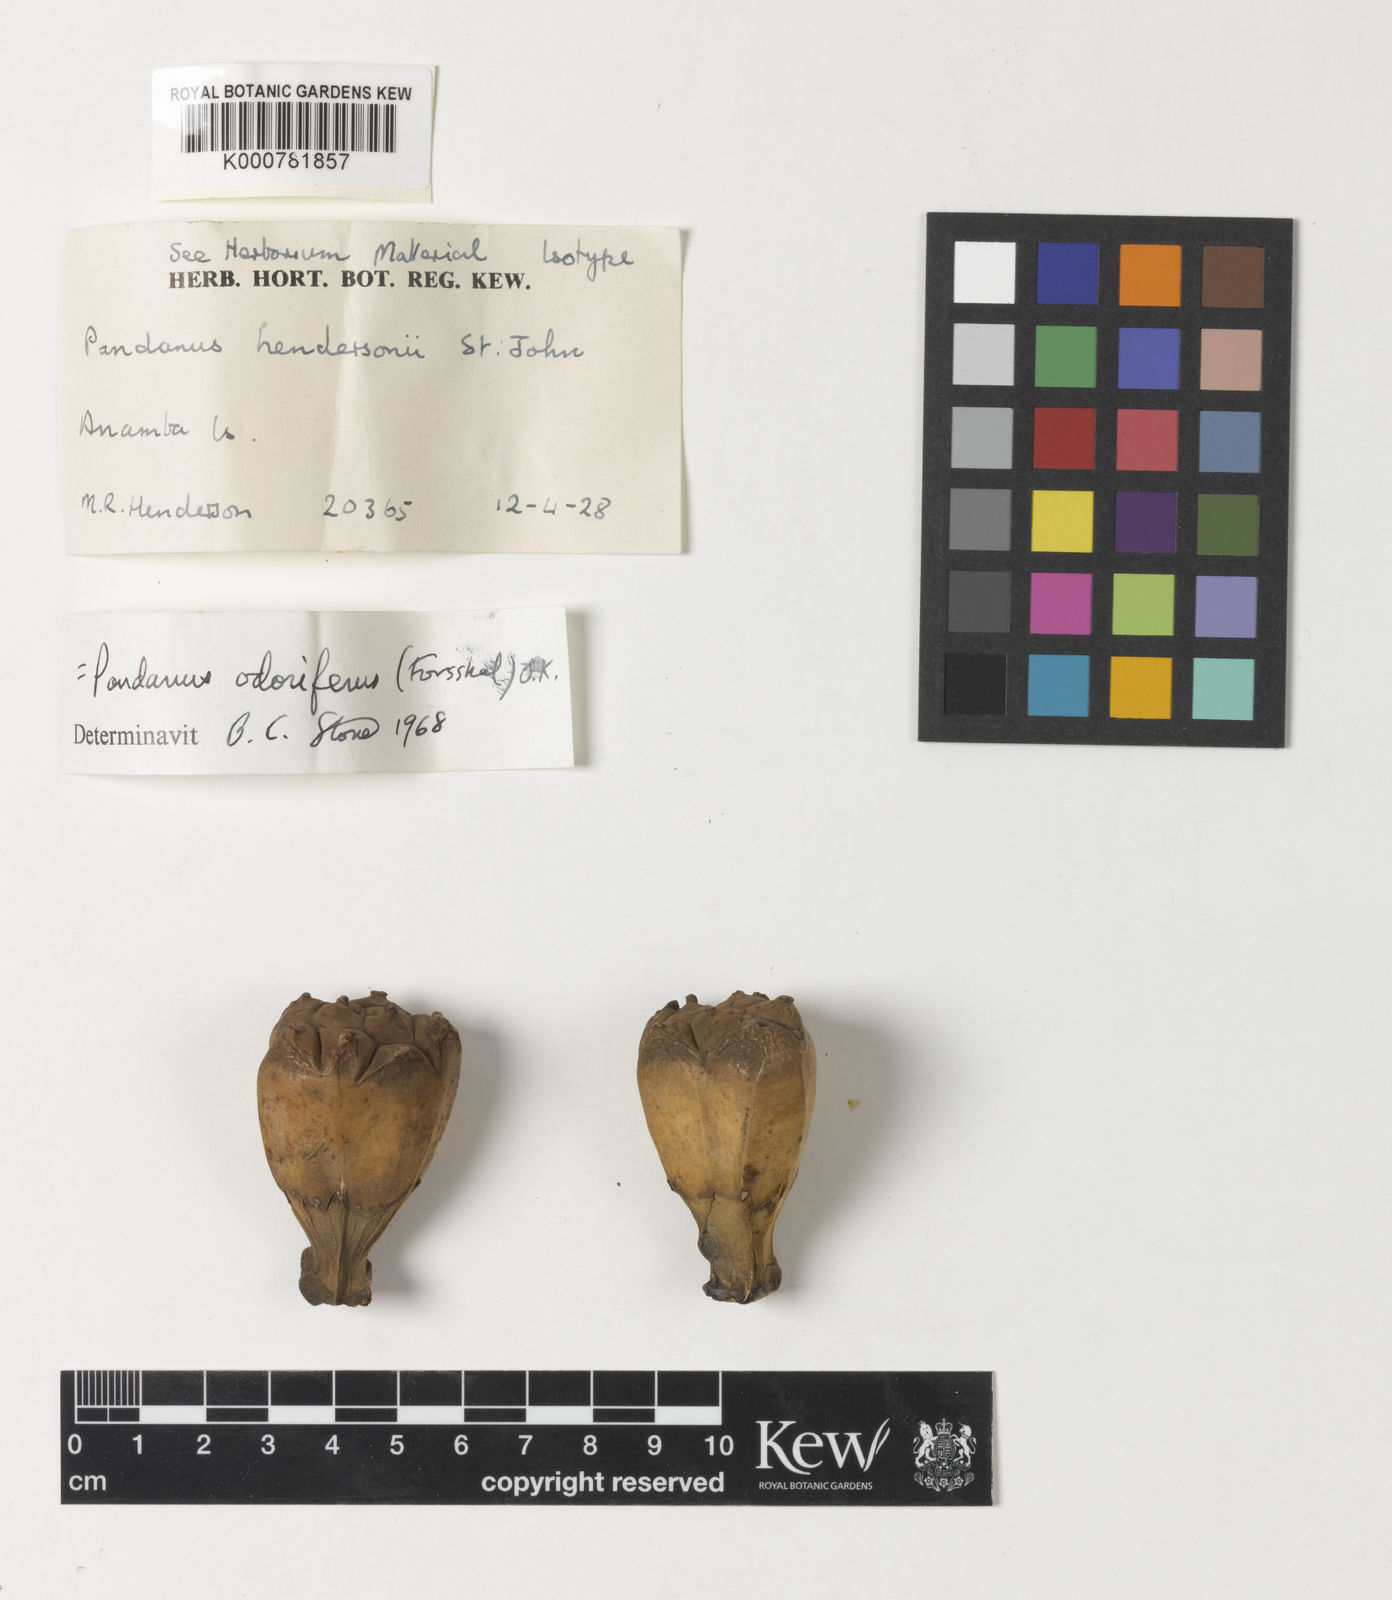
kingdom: Plantae
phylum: Tracheophyta
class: Liliopsida
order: Pandanales
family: Pandanaceae
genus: Pandanus
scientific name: Pandanus odorifer
